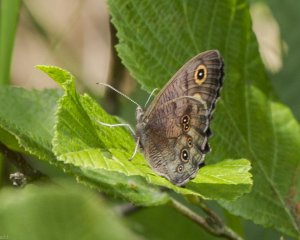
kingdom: Animalia
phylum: Arthropoda
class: Insecta
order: Lepidoptera
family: Nymphalidae
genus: Cercyonis
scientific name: Cercyonis pegala
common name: Common Wood-Nymph
